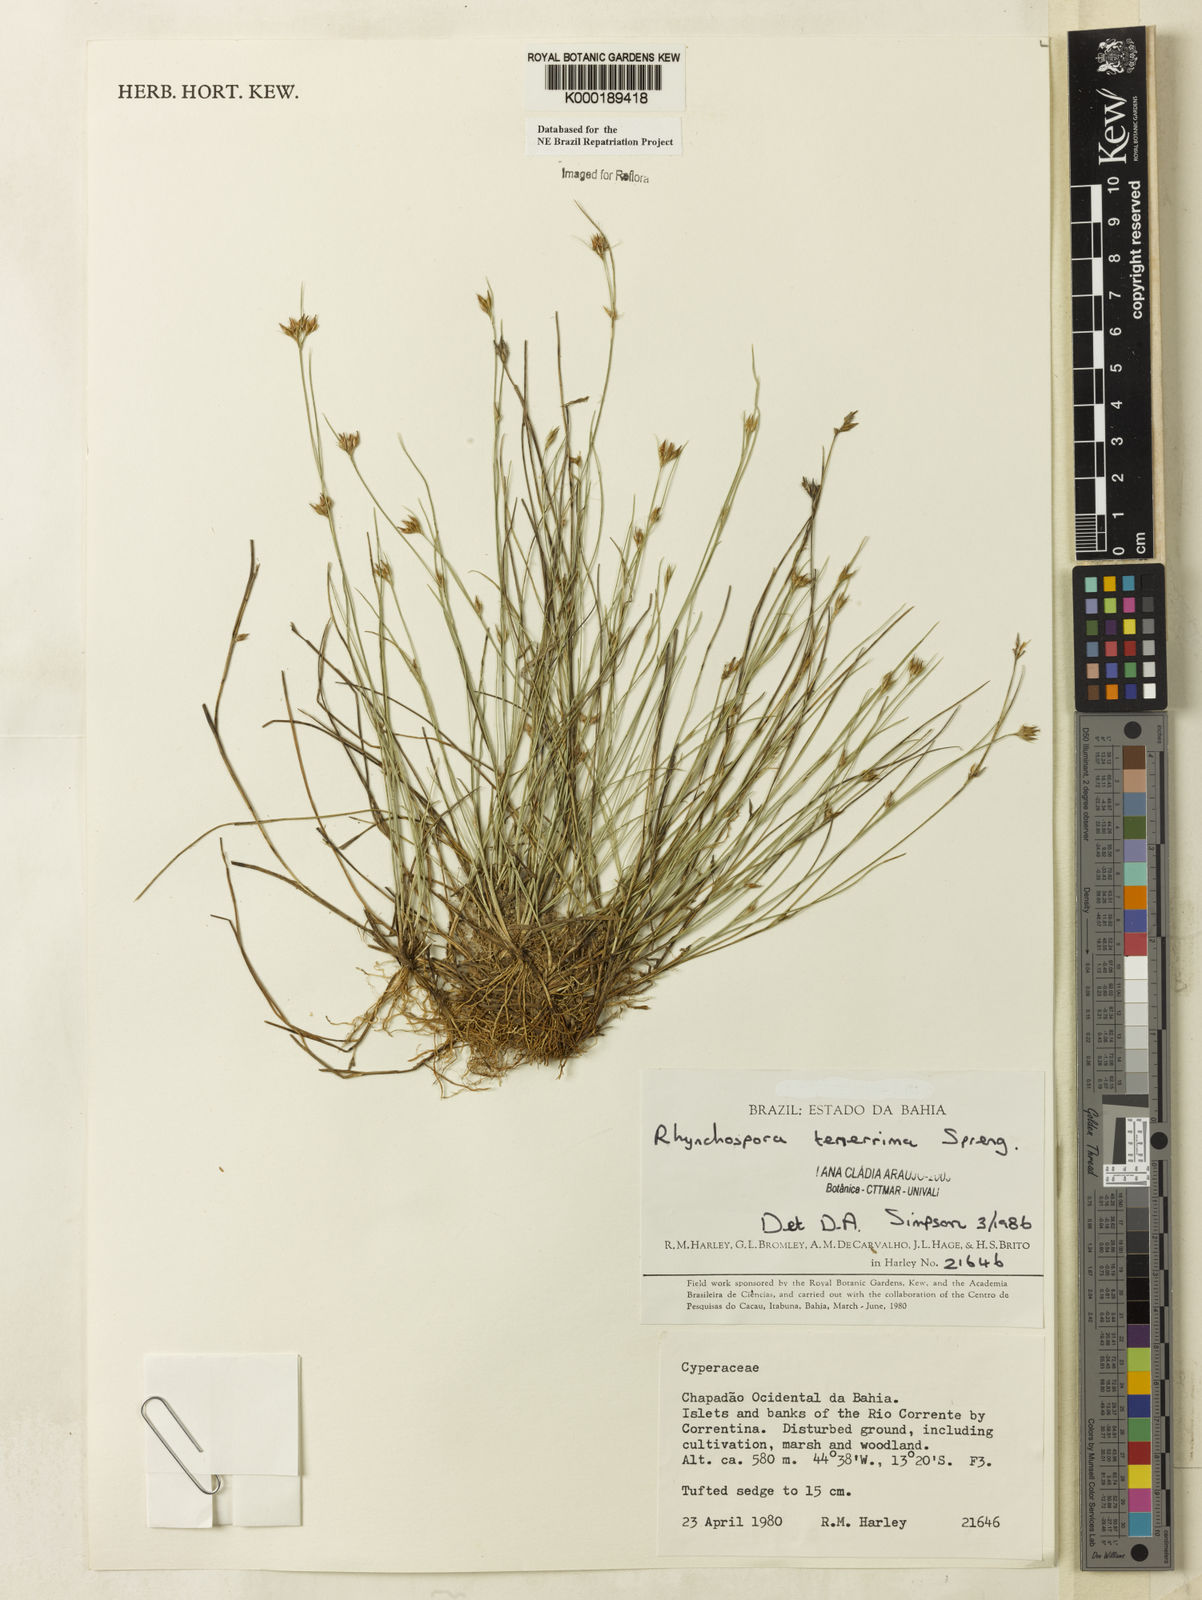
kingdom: Plantae
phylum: Tracheophyta
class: Liliopsida
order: Poales
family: Cyperaceae
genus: Rhynchospora
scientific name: Rhynchospora tenerrima
